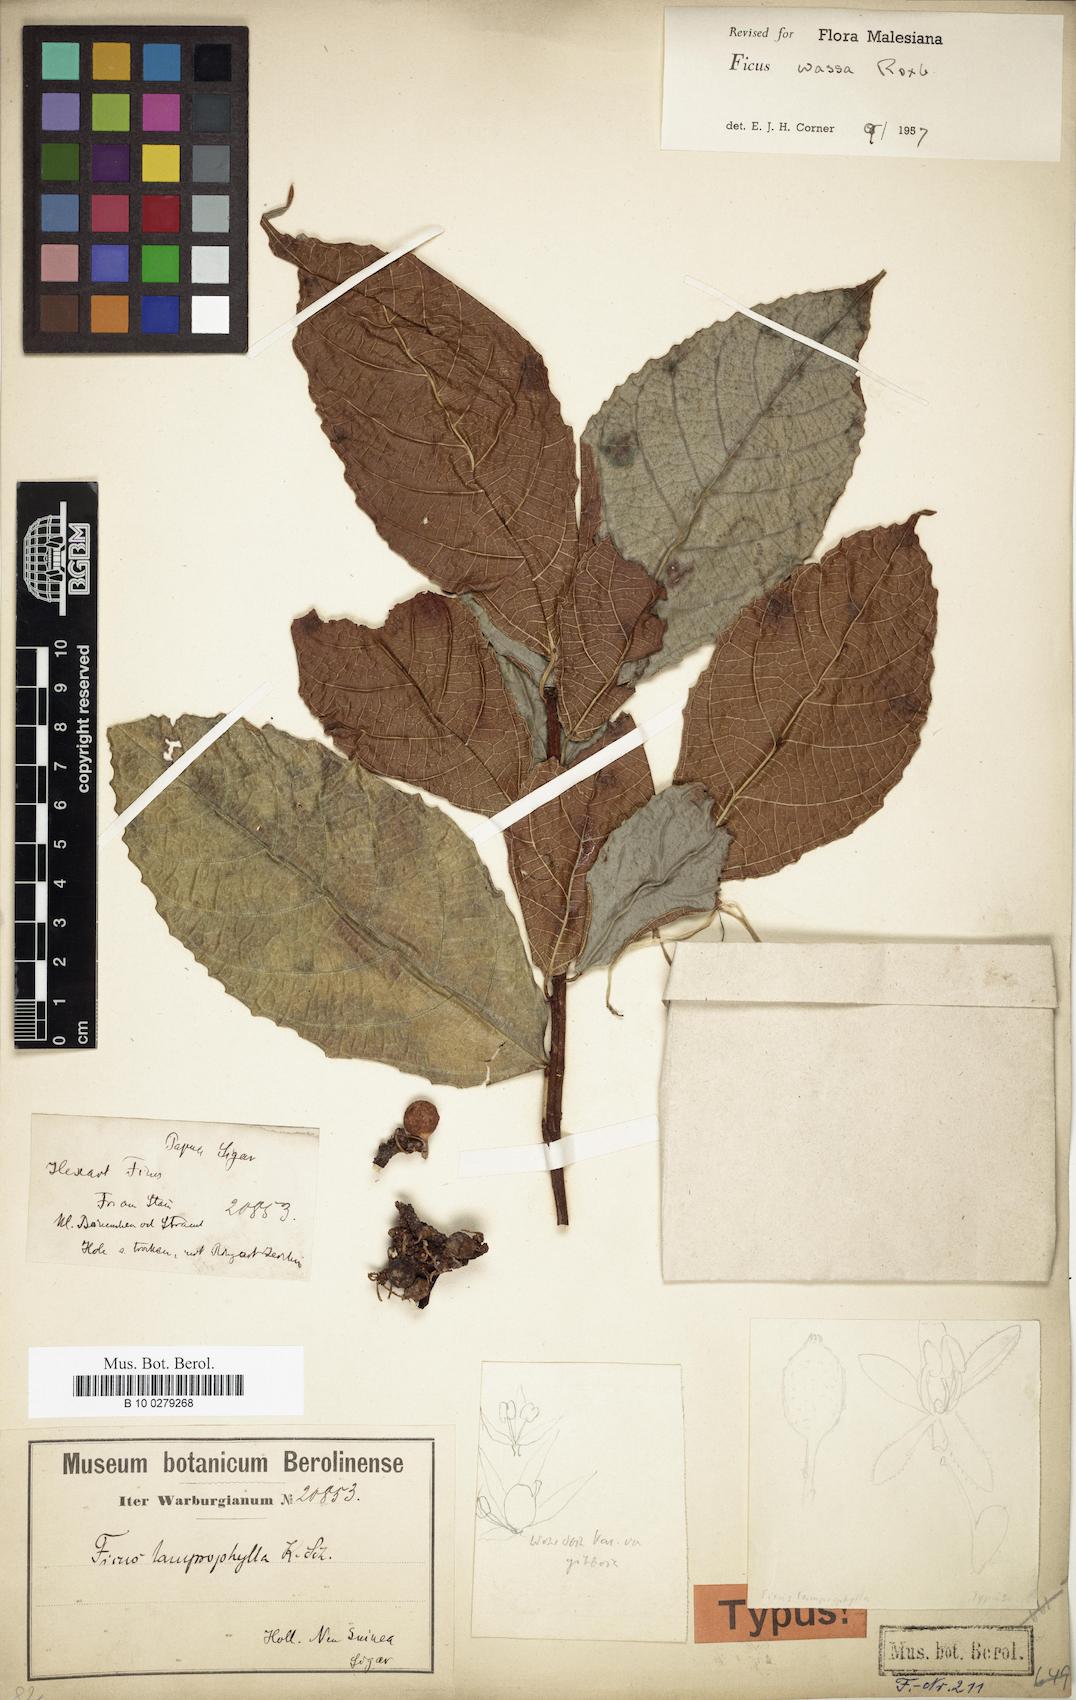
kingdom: Plantae
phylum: Tracheophyta
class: Magnoliopsida
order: Rosales
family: Moraceae
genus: Ficus
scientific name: Ficus wassa
